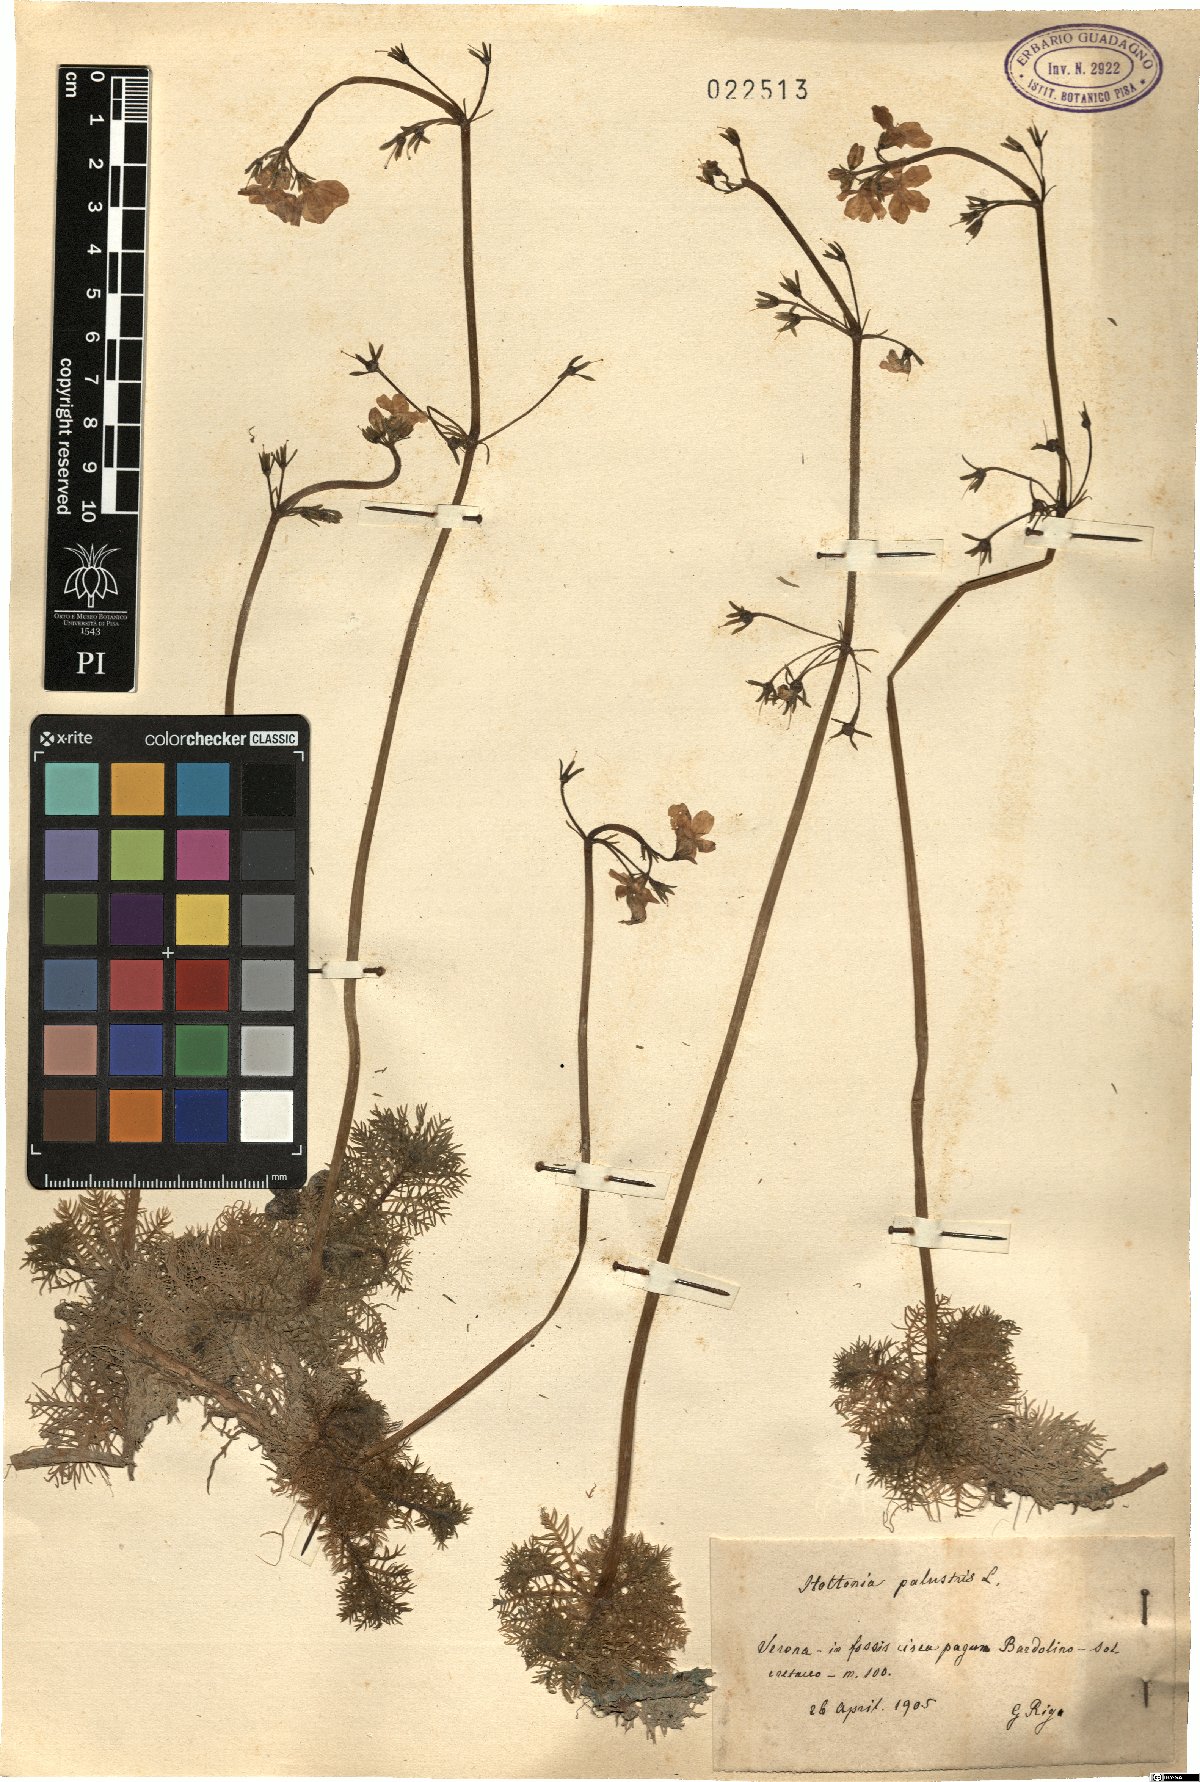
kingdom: Plantae
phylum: Tracheophyta
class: Magnoliopsida
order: Ericales
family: Primulaceae
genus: Hottonia
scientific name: Hottonia palustris
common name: Water-violet
